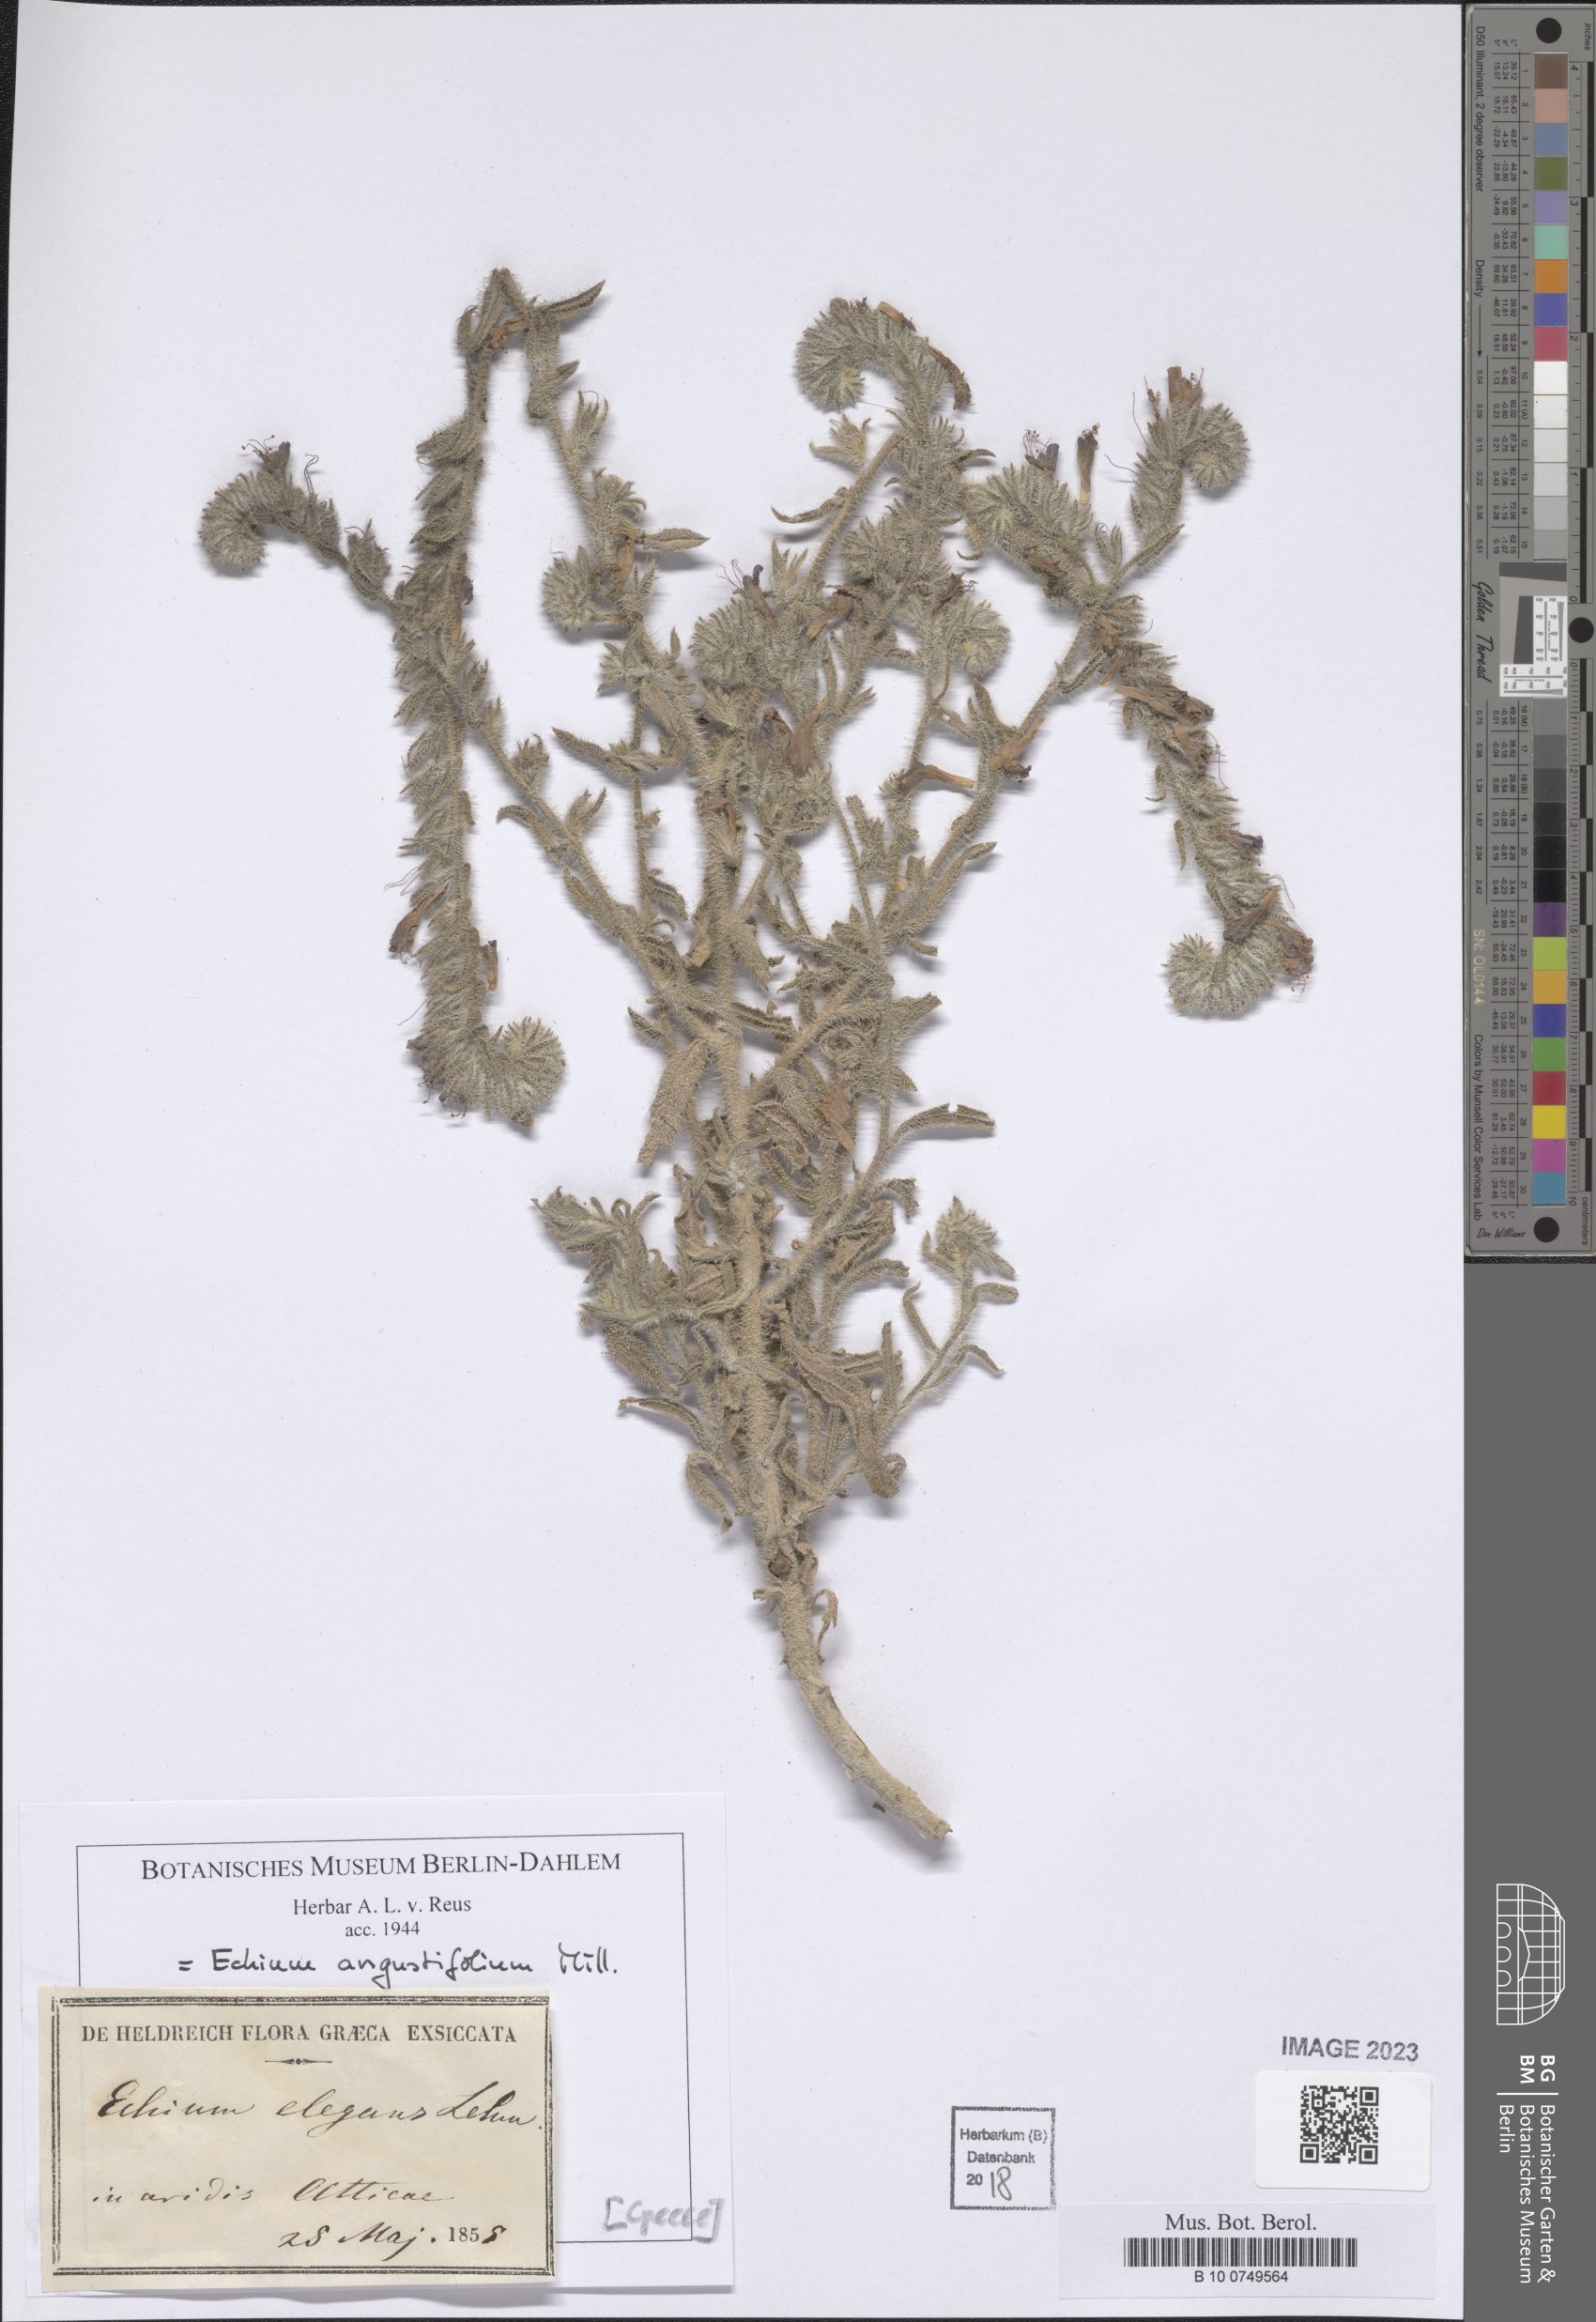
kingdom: Plantae
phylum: Tracheophyta
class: Magnoliopsida
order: Boraginales
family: Boraginaceae
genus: Lobostemon
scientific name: Lobostemon glaucophyllus
